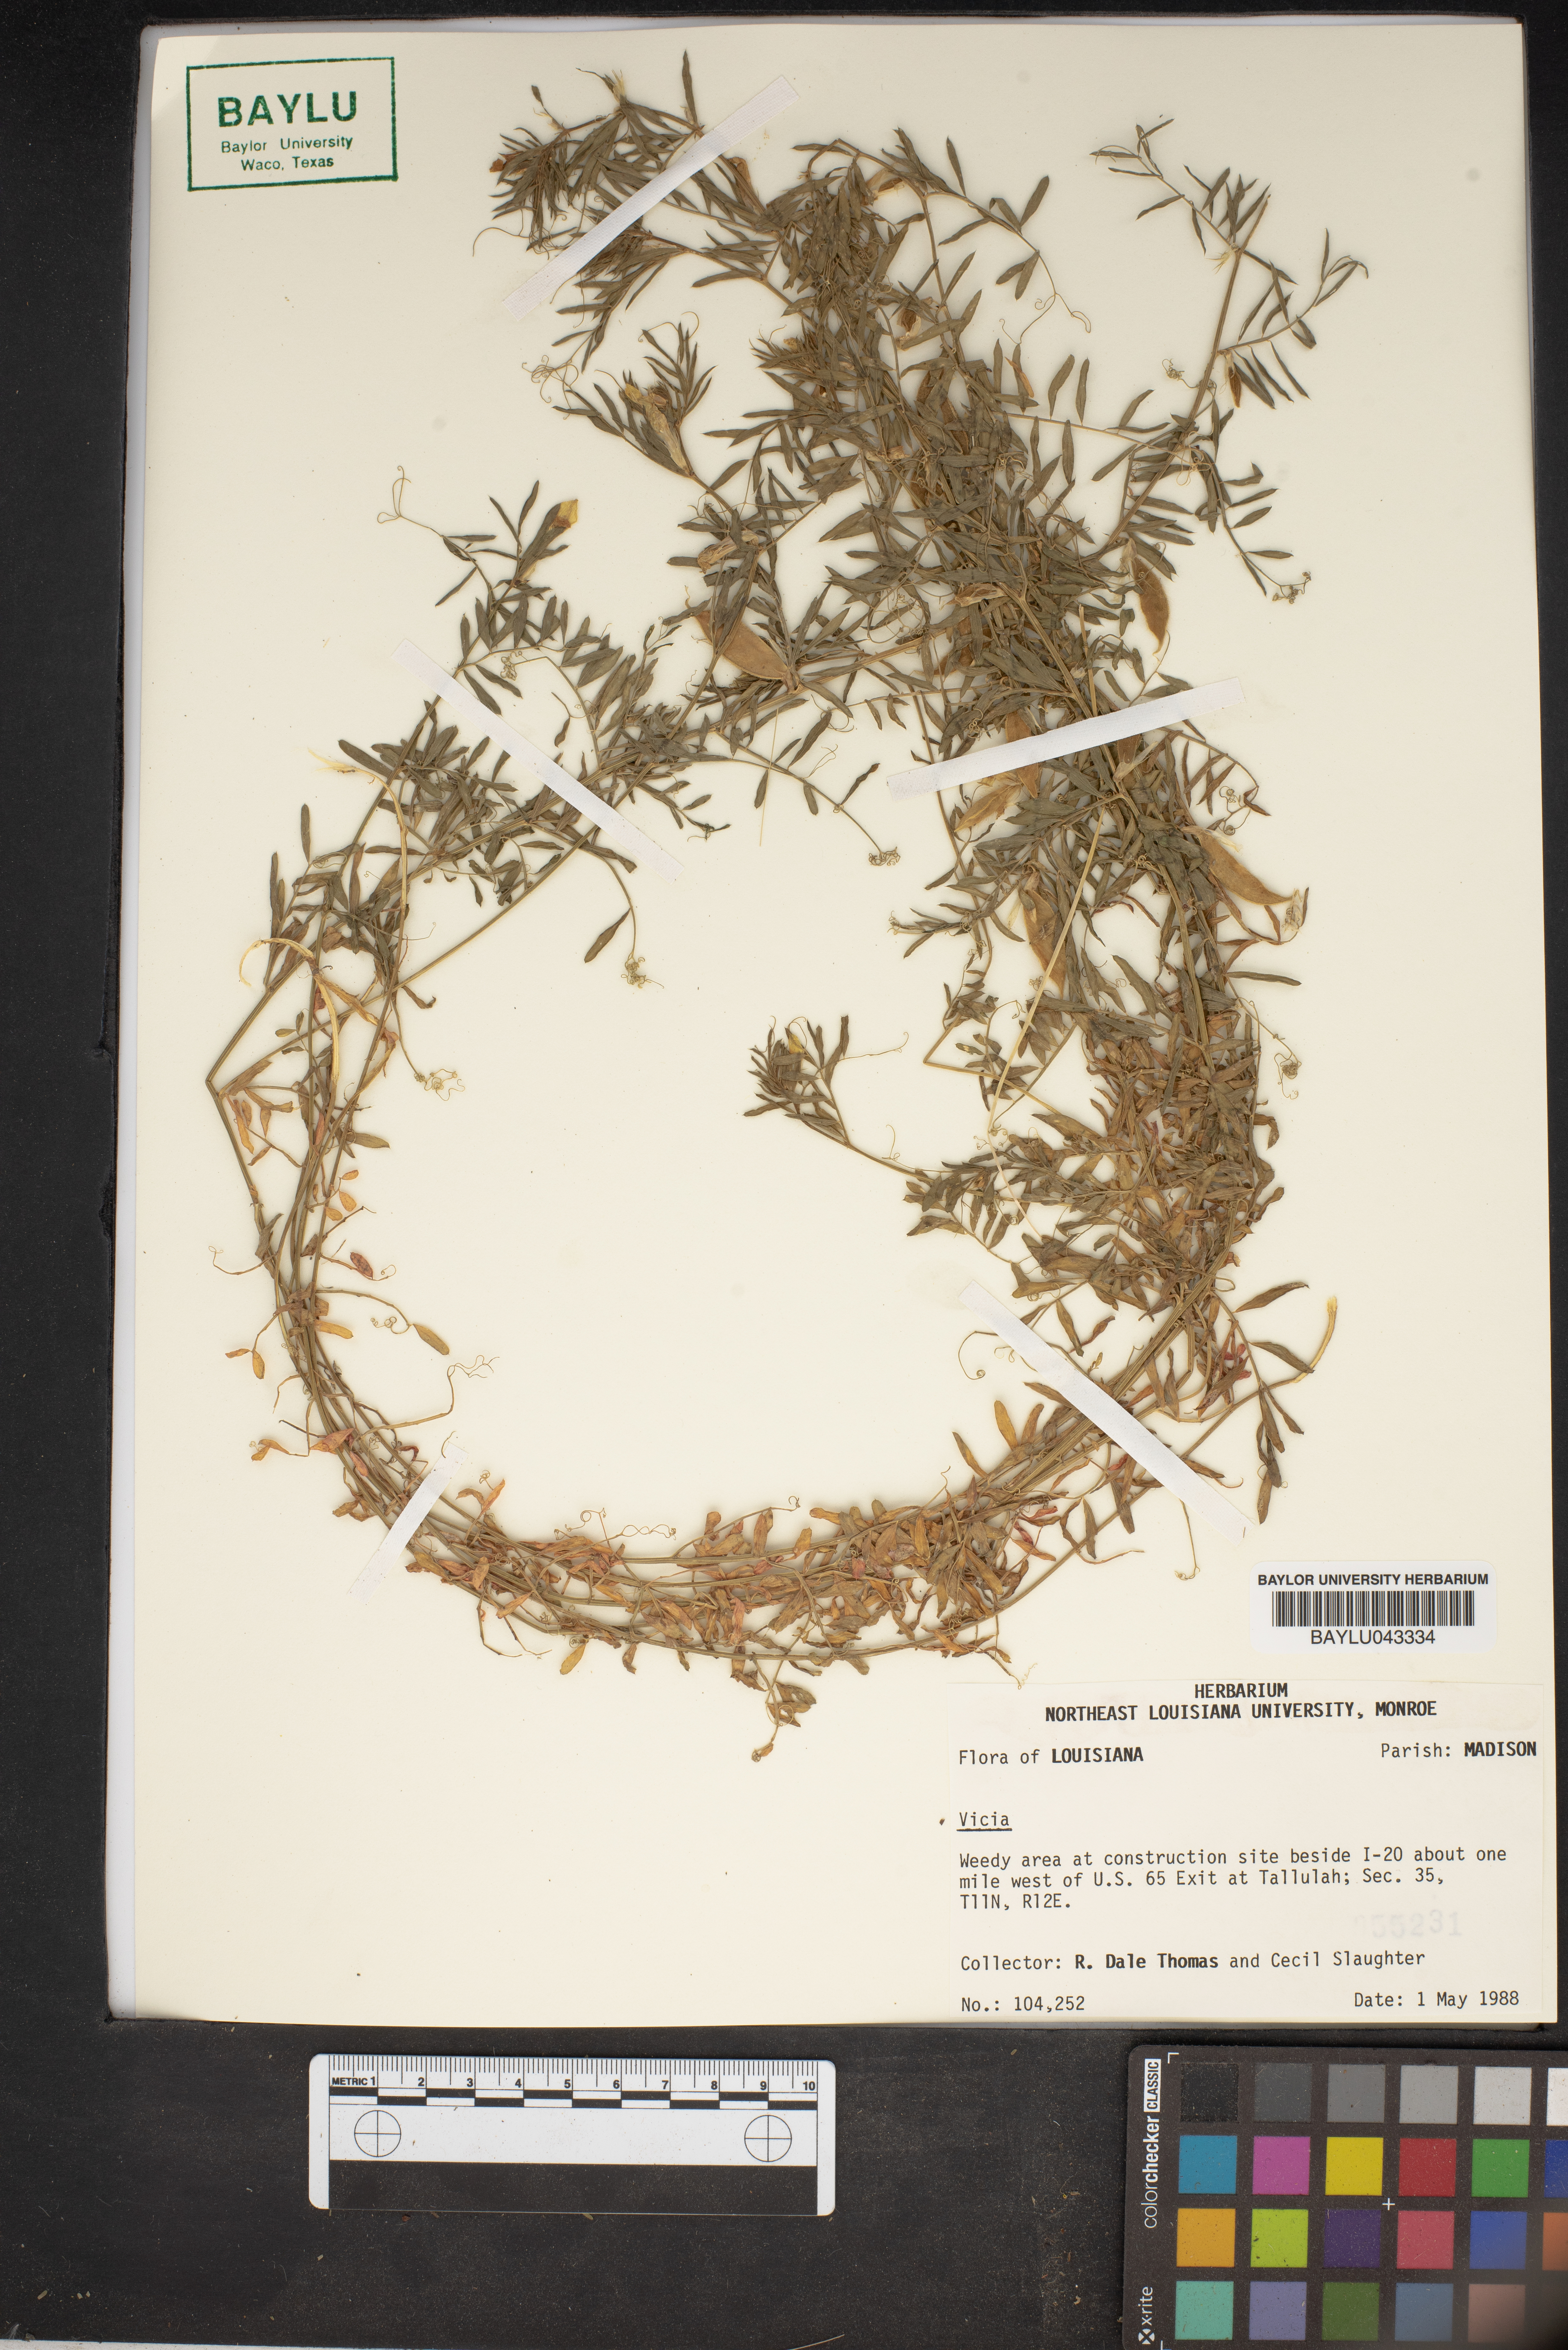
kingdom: Plantae
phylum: Tracheophyta
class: Magnoliopsida
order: Fabales
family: Fabaceae
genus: Vicia
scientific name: Vicia
